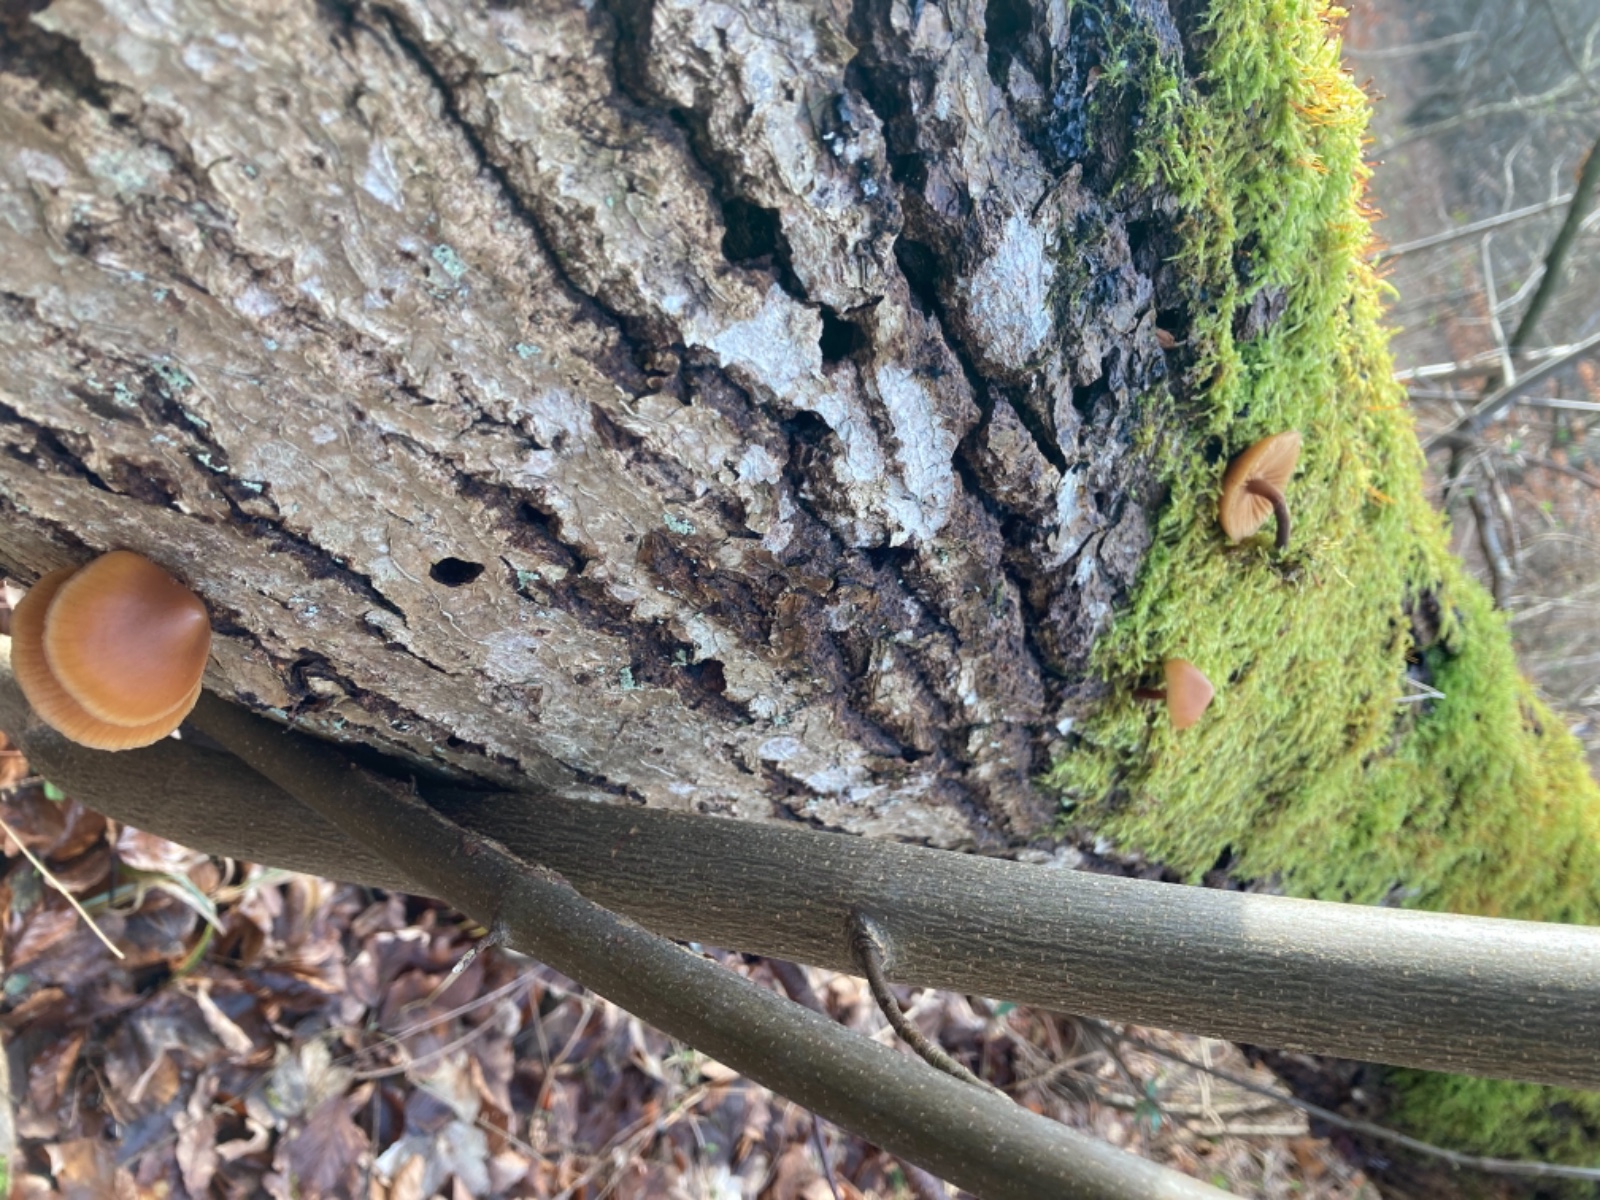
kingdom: Fungi
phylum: Basidiomycota
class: Agaricomycetes
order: Agaricales
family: Hymenogastraceae
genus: Galerina
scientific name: Galerina marginata
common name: randbæltet hjelmhat
